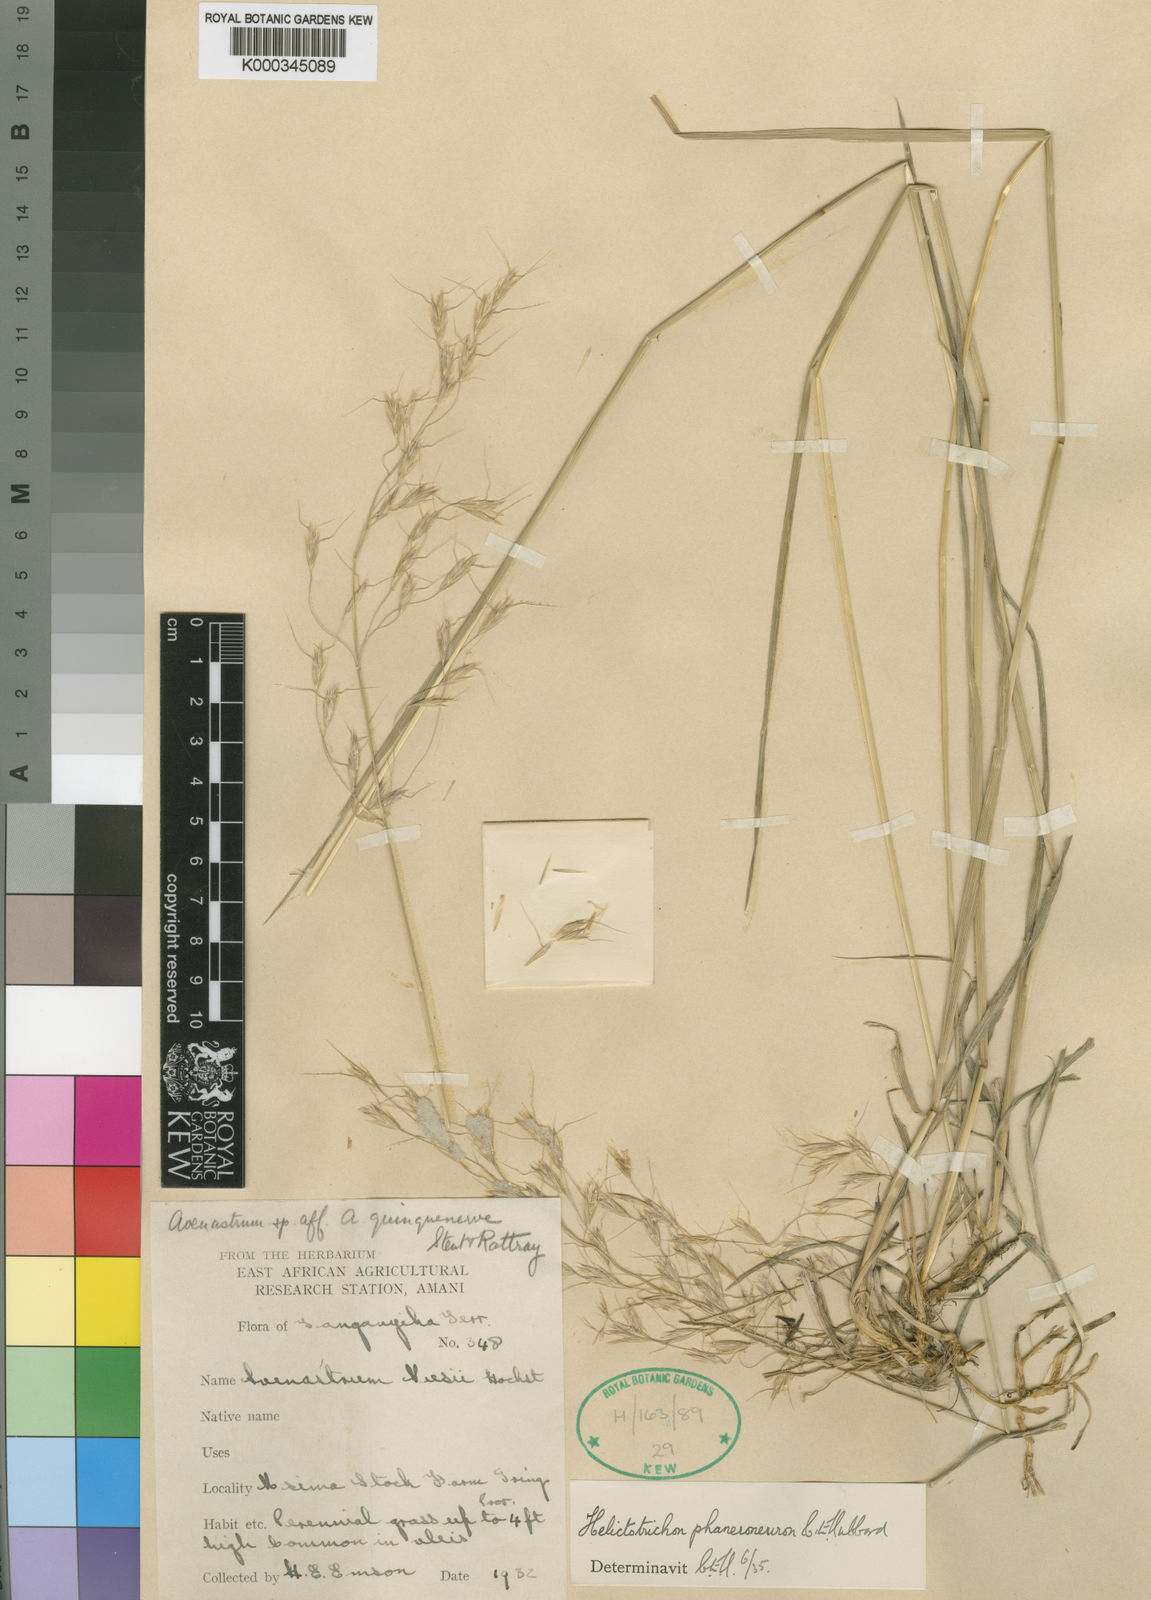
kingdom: Plantae
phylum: Tracheophyta
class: Liliopsida
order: Poales
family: Poaceae
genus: Trisetopsis
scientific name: Trisetopsis elongata
